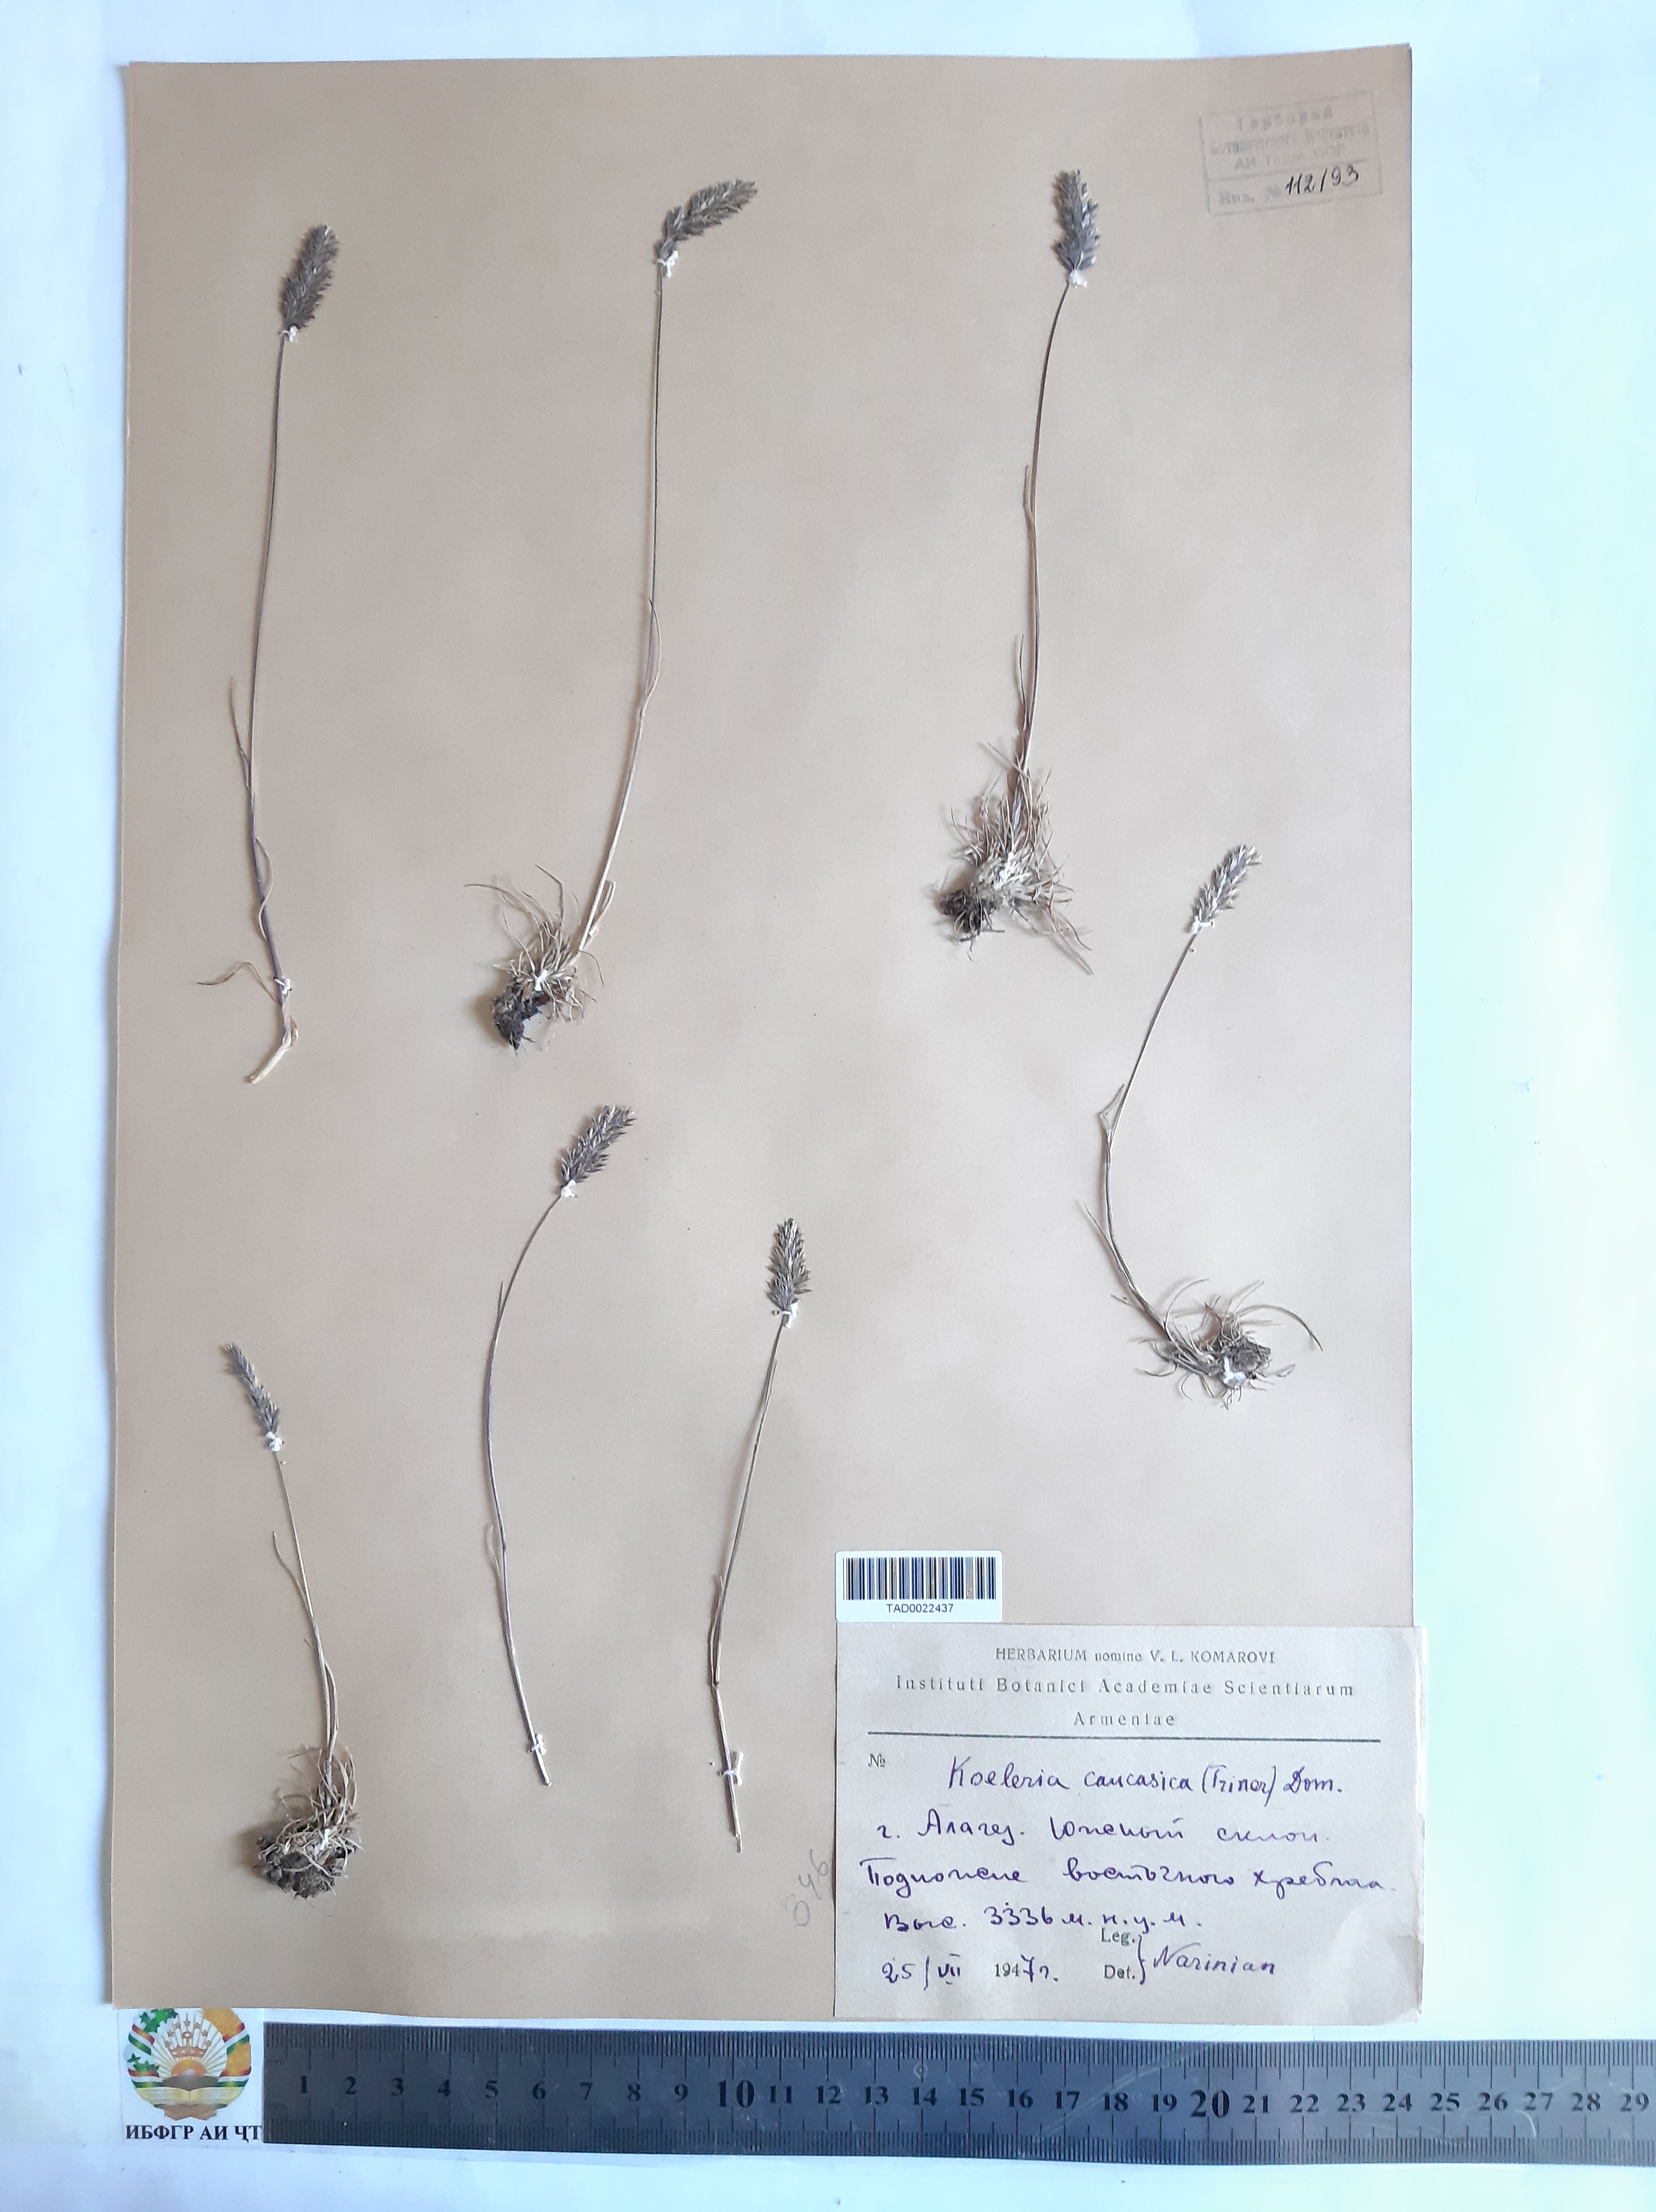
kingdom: Plantae
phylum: Tracheophyta
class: Liliopsida
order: Poales
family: Poaceae
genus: Koeleria
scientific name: Koeleria eriostachya
